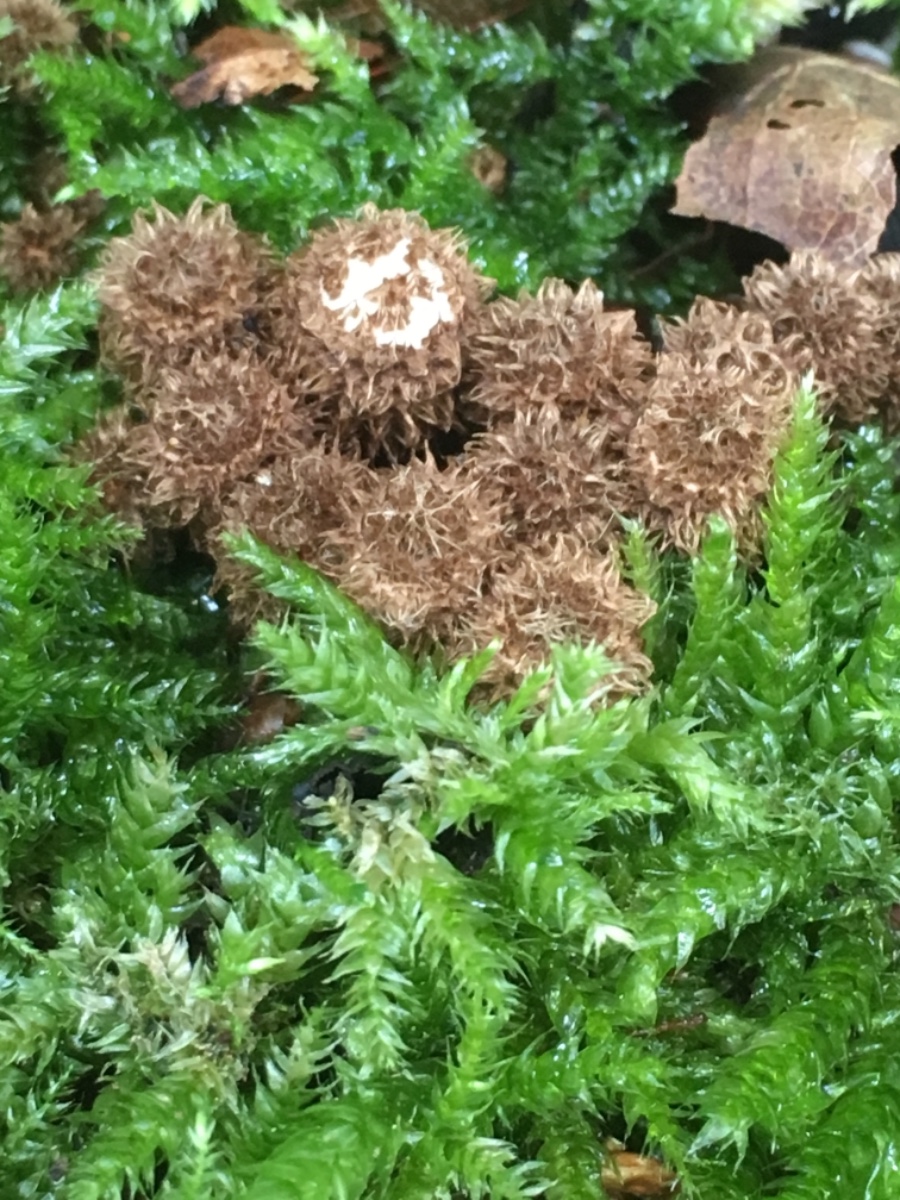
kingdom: Fungi
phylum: Basidiomycota
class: Agaricomycetes
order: Agaricales
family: Agaricaceae
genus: Cyathus
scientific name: Cyathus striatus
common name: stribet redesvamp
